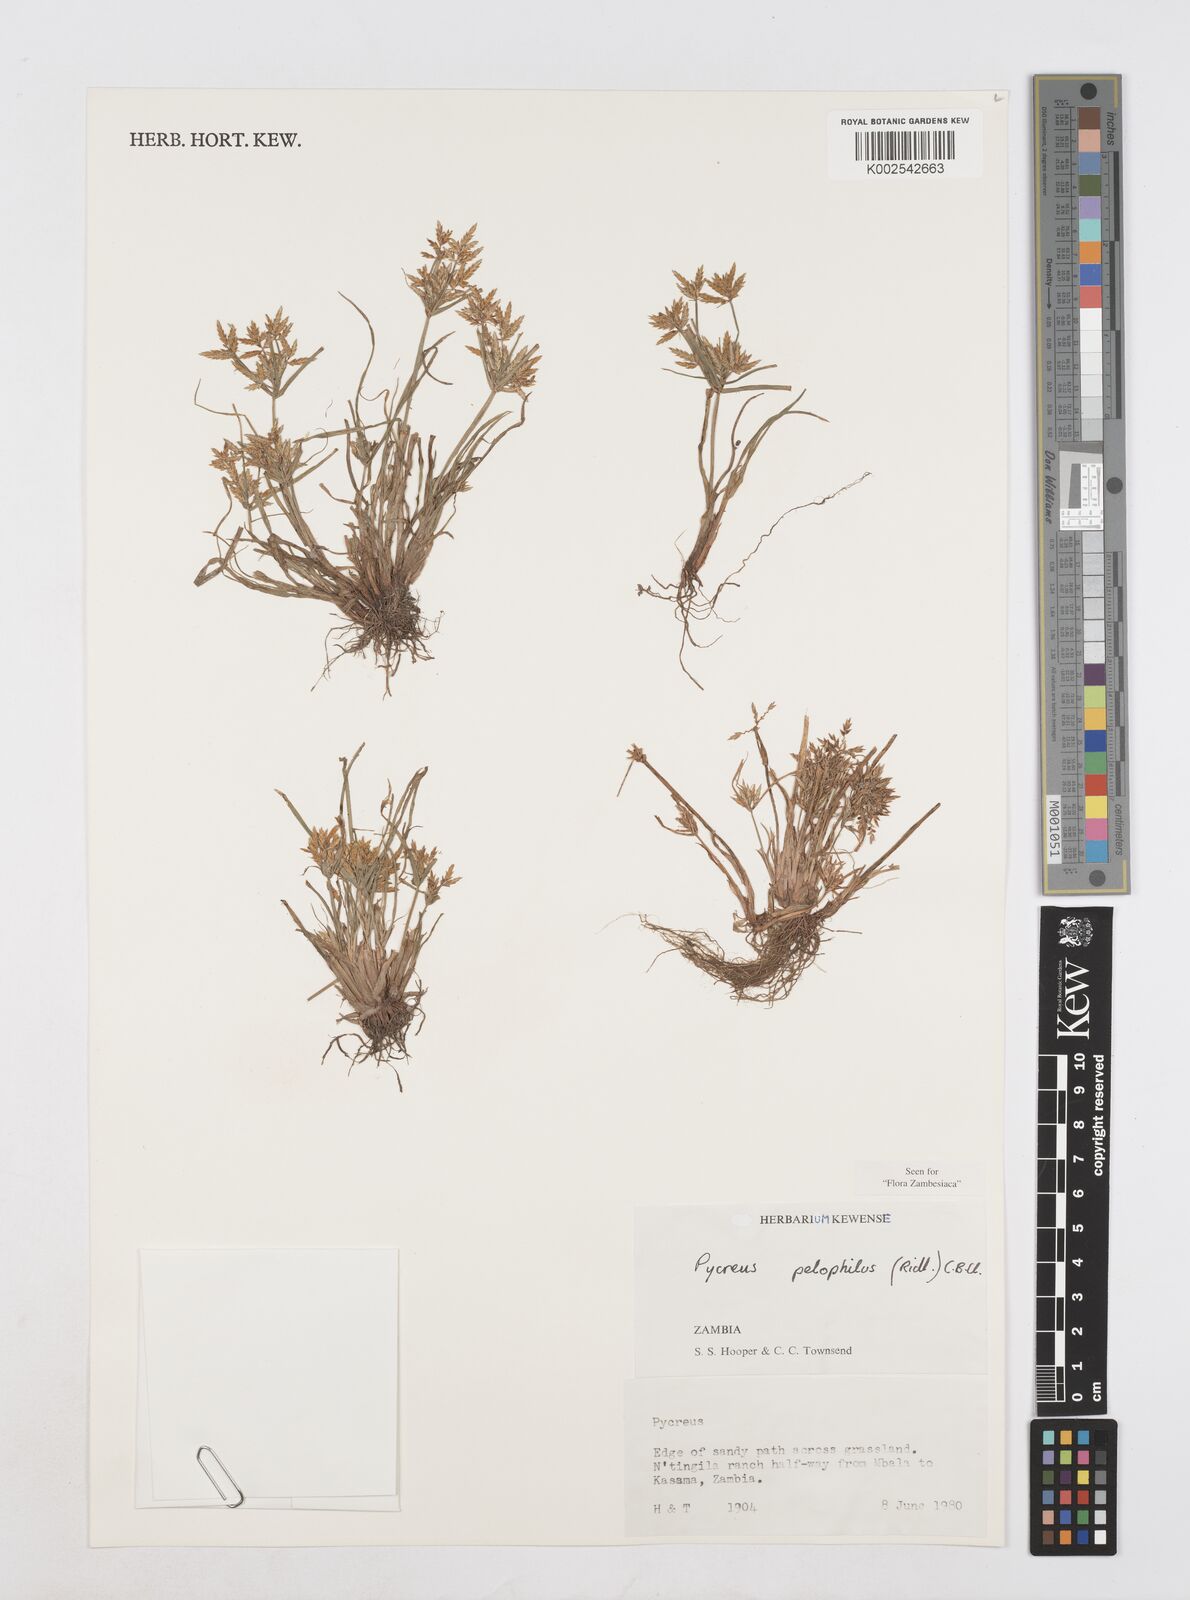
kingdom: Plantae
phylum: Tracheophyta
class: Liliopsida
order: Poales
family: Cyperaceae
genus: Cyperus
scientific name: Cyperus pelophilus
